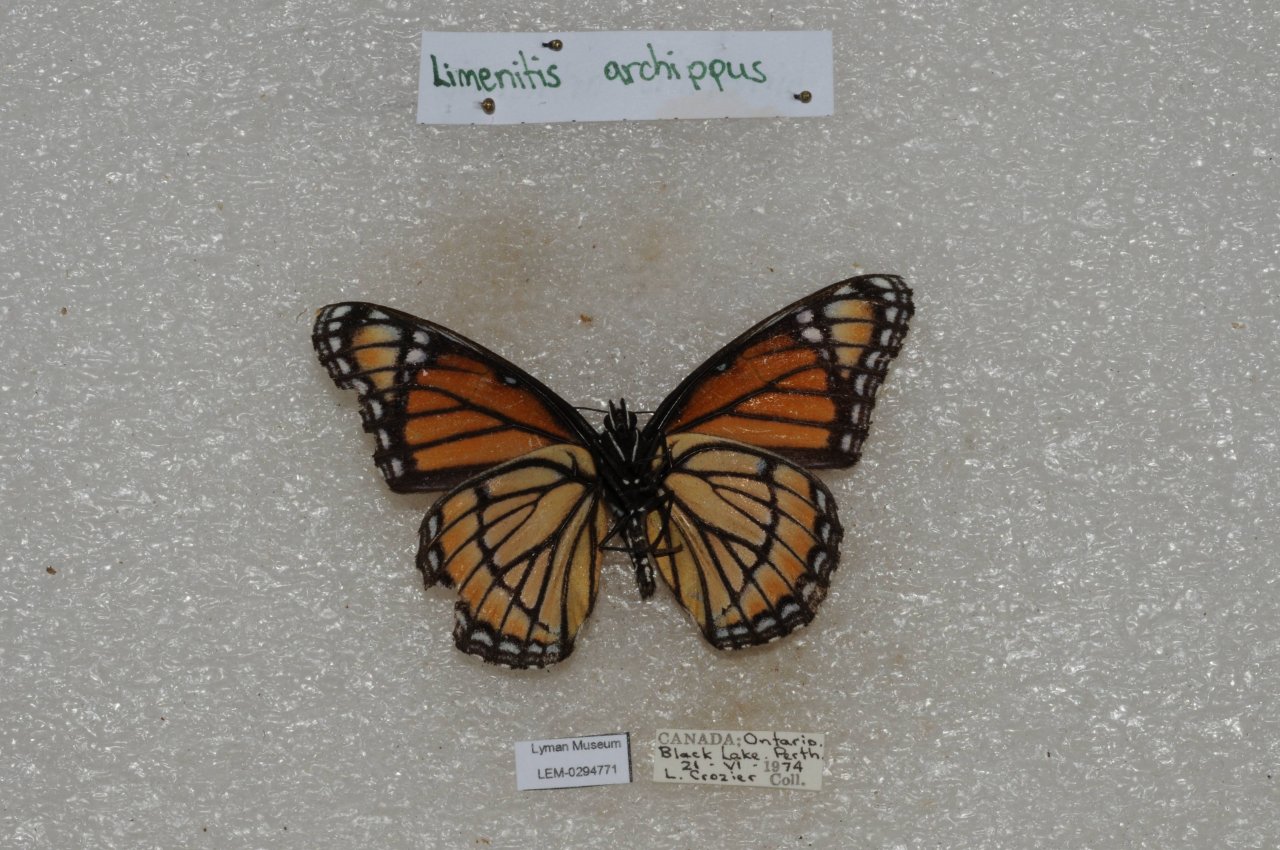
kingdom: Animalia
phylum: Arthropoda
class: Insecta
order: Lepidoptera
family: Nymphalidae
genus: Limenitis
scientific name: Limenitis archippus
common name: Viceroy
